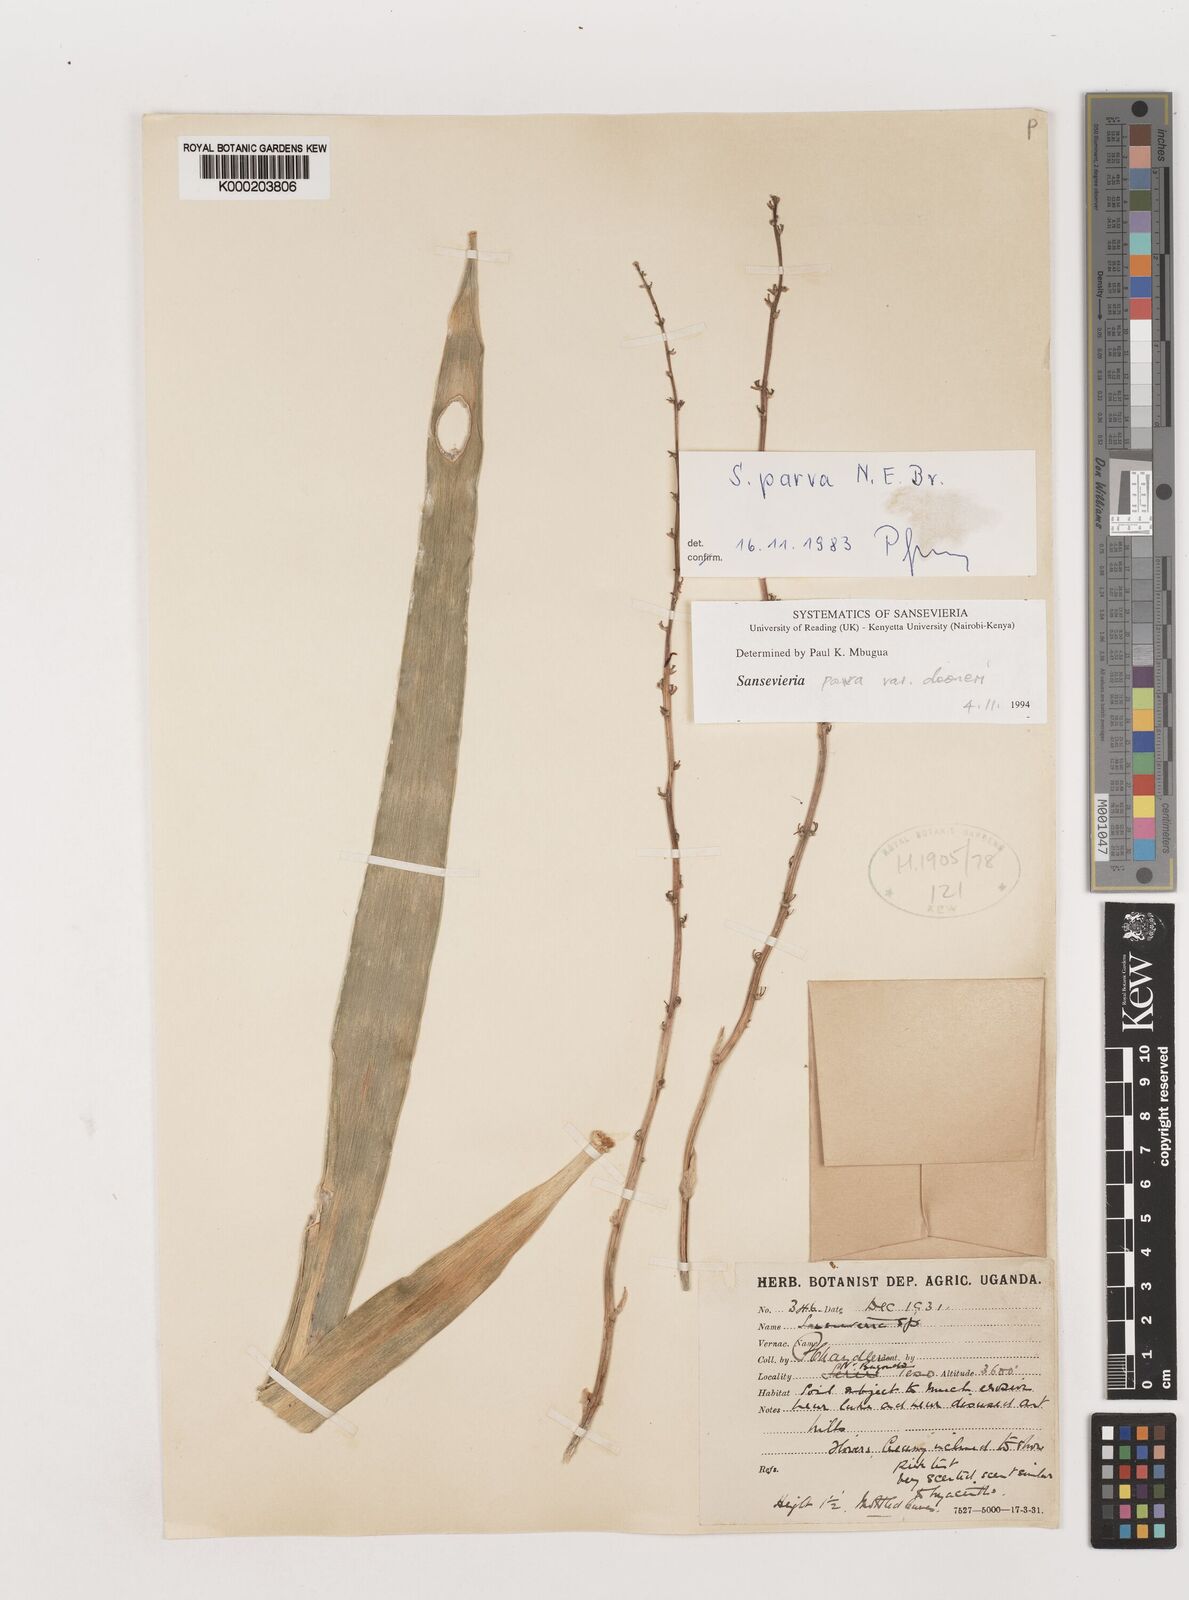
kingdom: Plantae
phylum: Tracheophyta
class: Liliopsida
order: Asparagales
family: Asparagaceae
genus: Dracaena
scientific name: Dracaena parva
